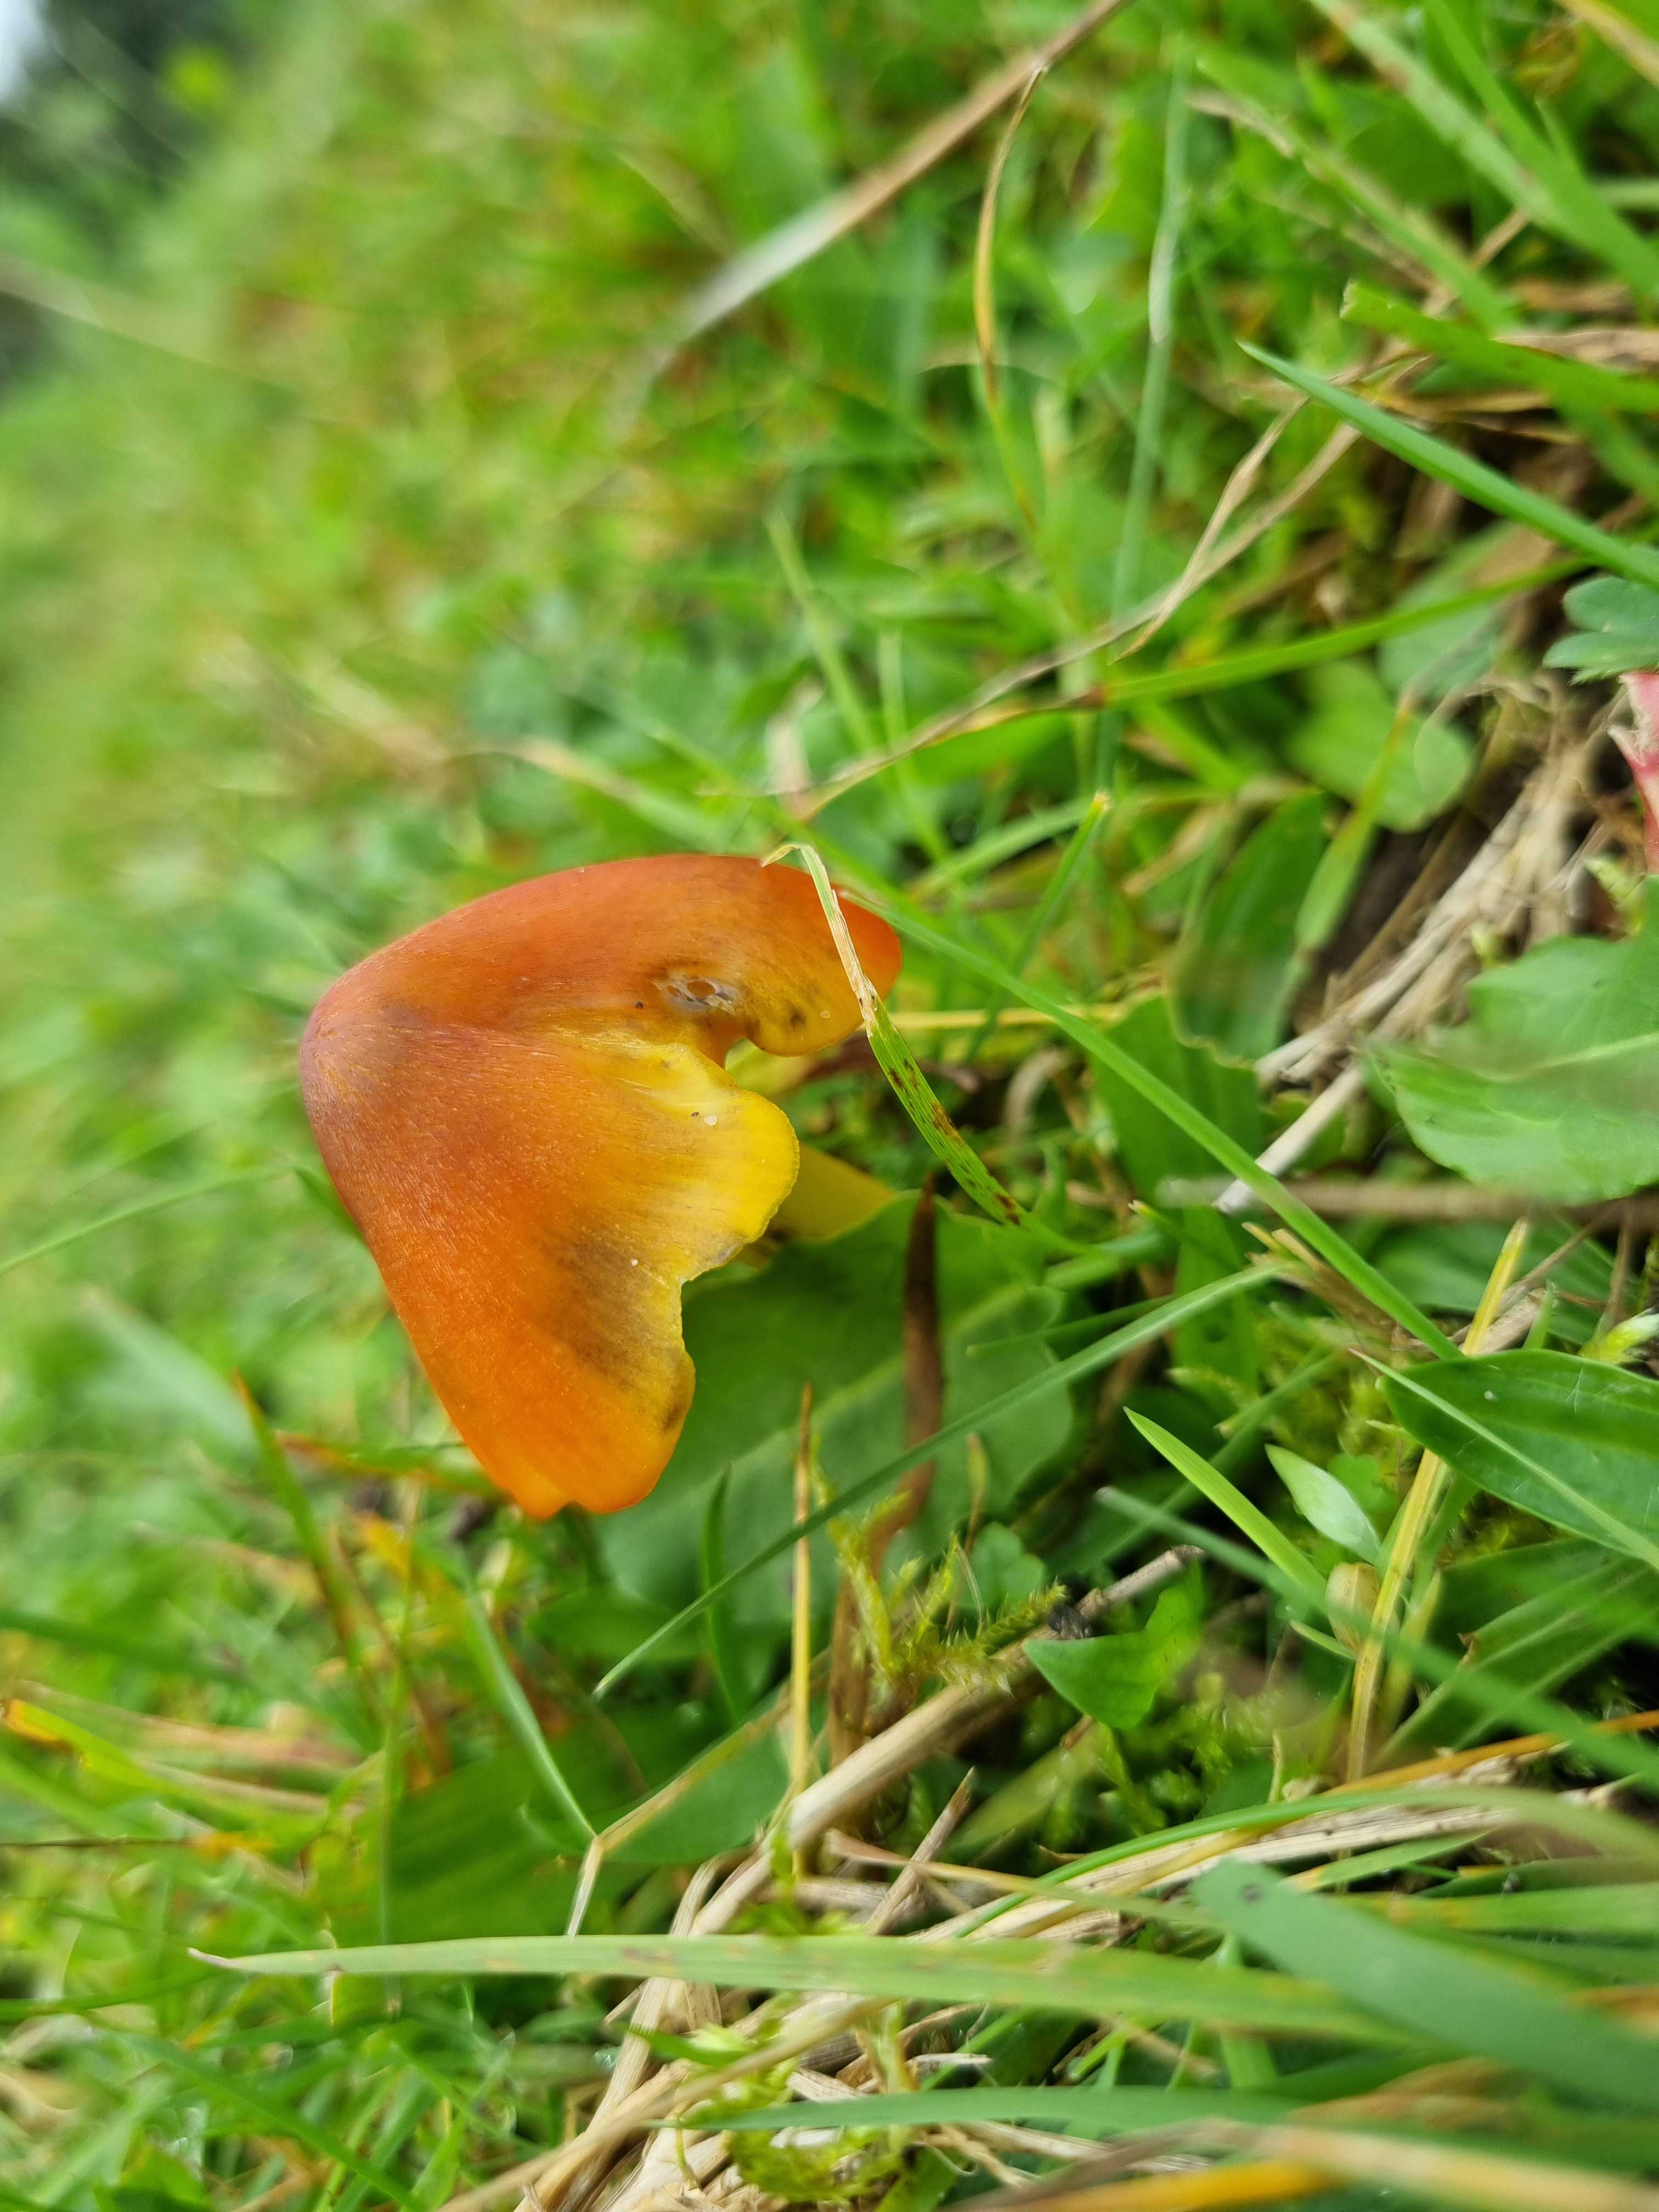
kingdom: Fungi
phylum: Basidiomycota
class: Agaricomycetes
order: Agaricales
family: Hygrophoraceae
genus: Hygrocybe
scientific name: Hygrocybe conica
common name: kegle-vokshat
